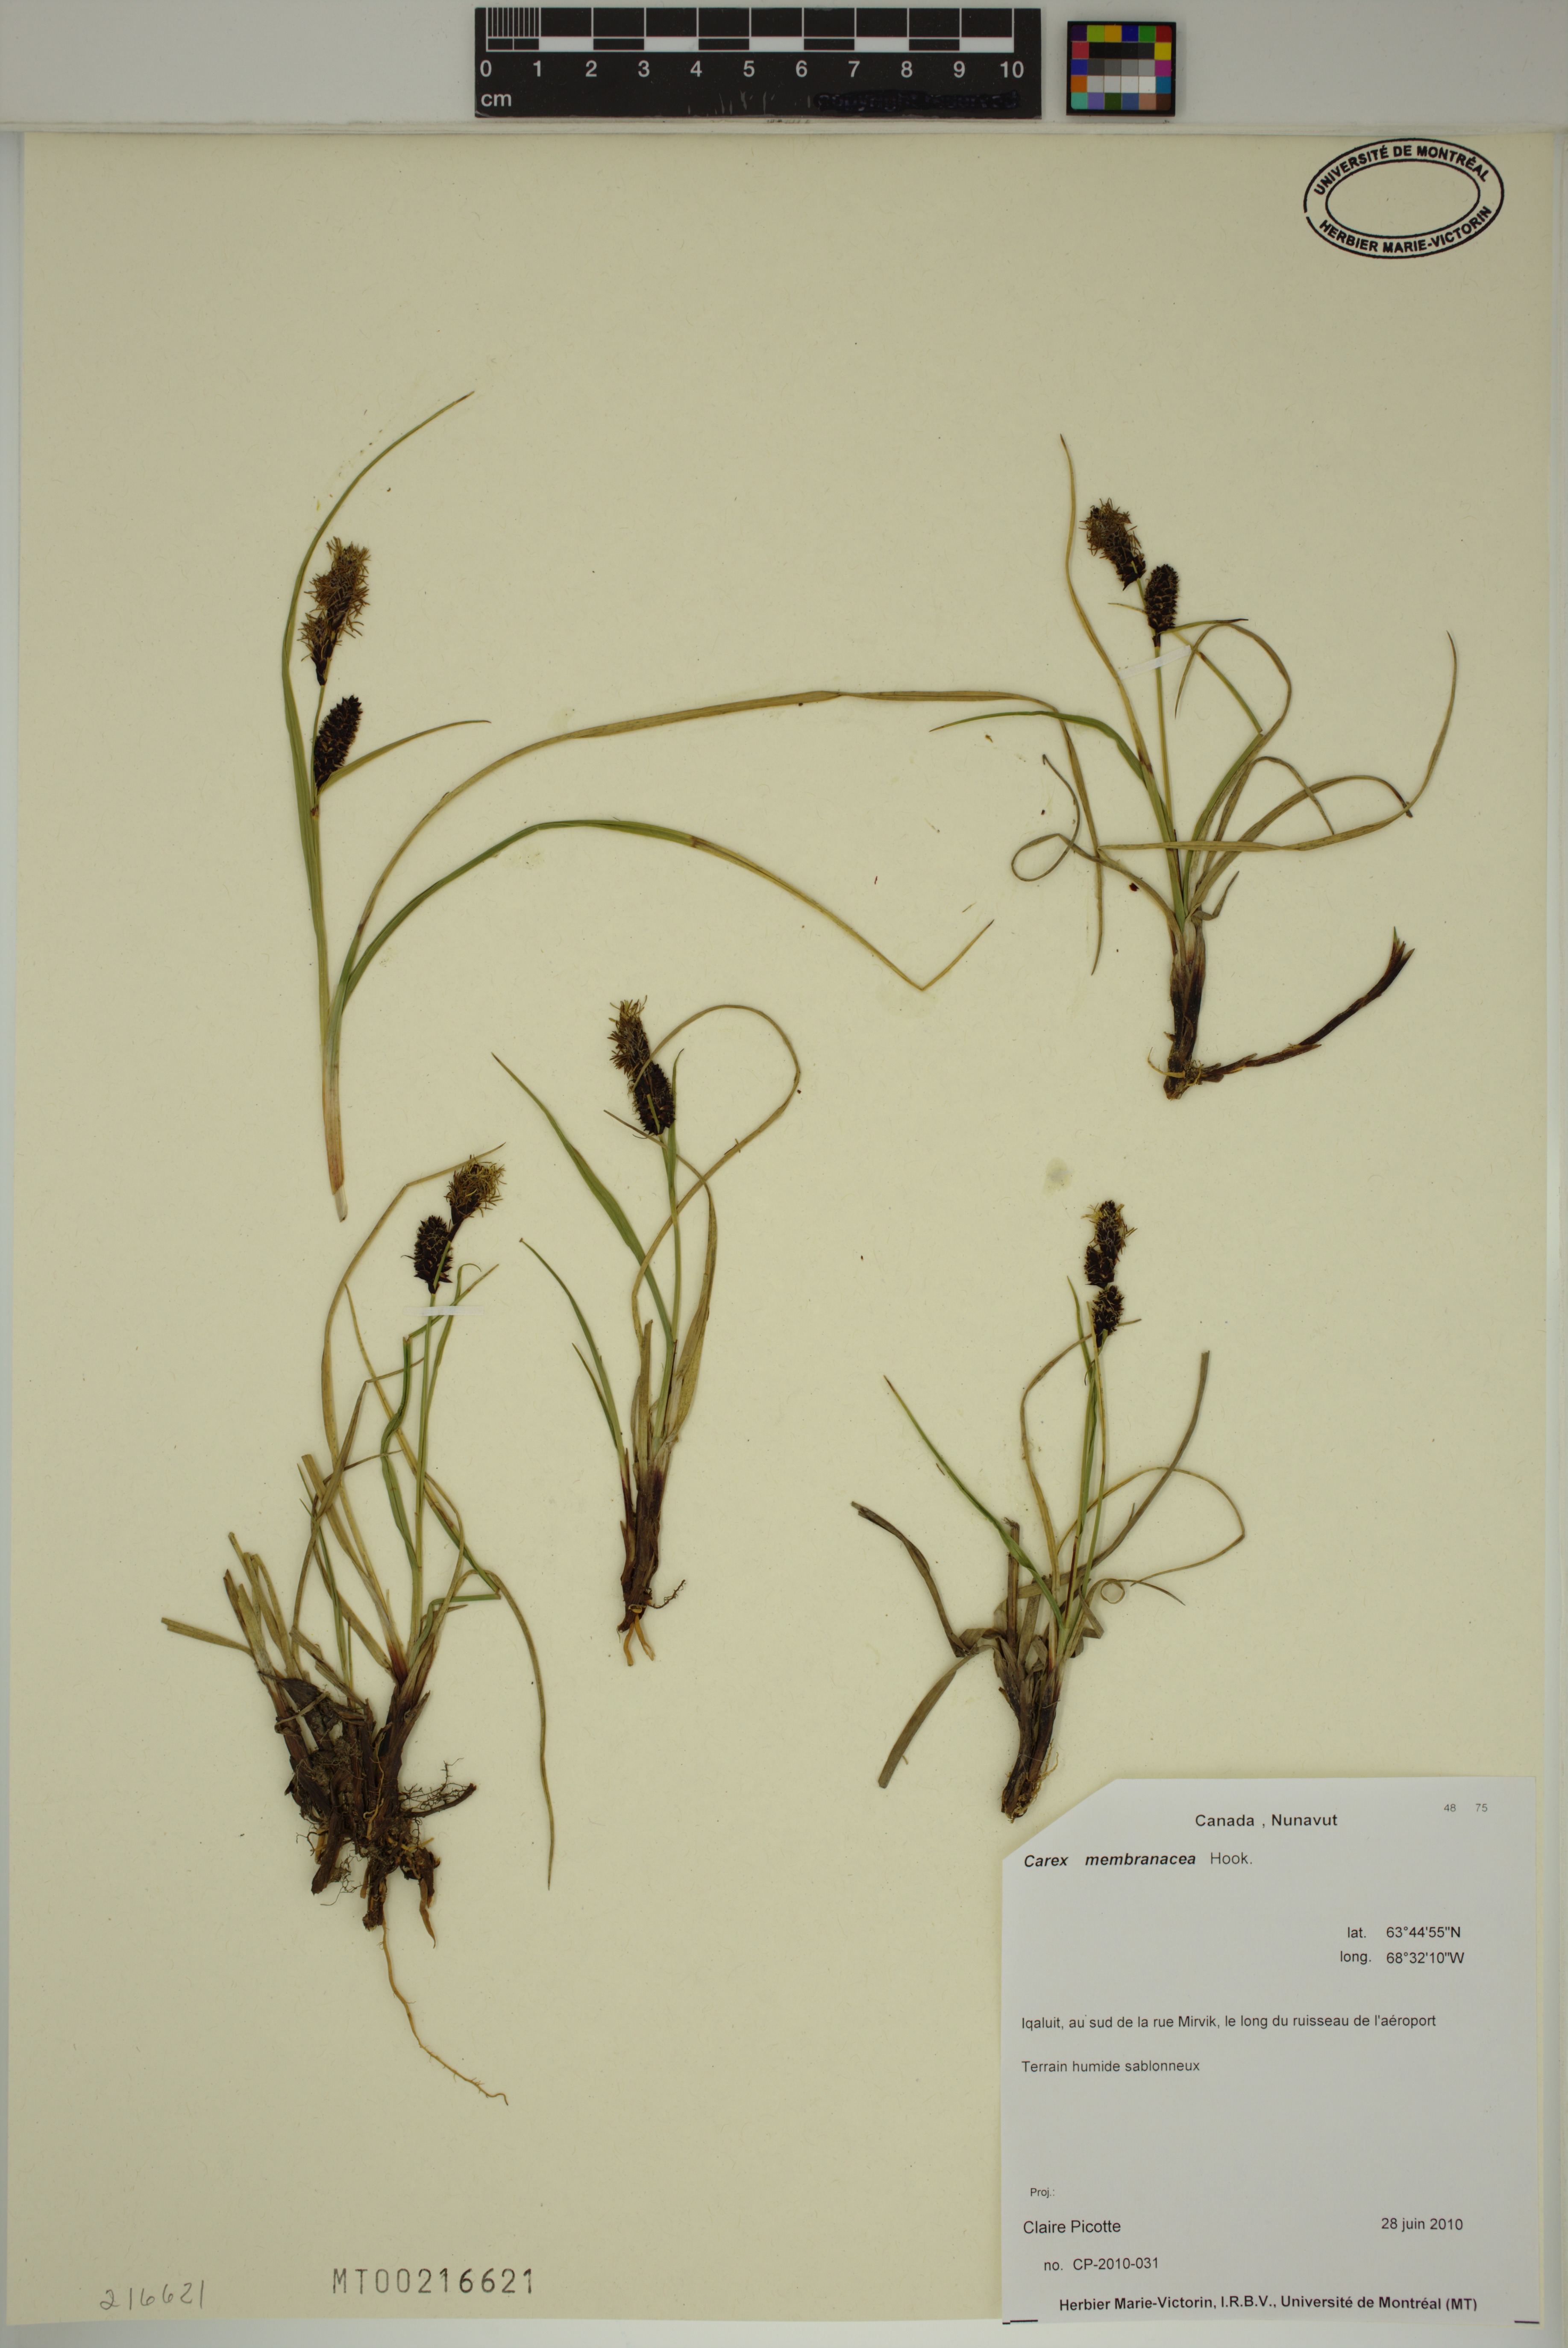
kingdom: Plantae
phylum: Tracheophyta
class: Liliopsida
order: Poales
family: Cyperaceae
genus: Carex
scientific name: Carex membranacea
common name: Fragile sedge
